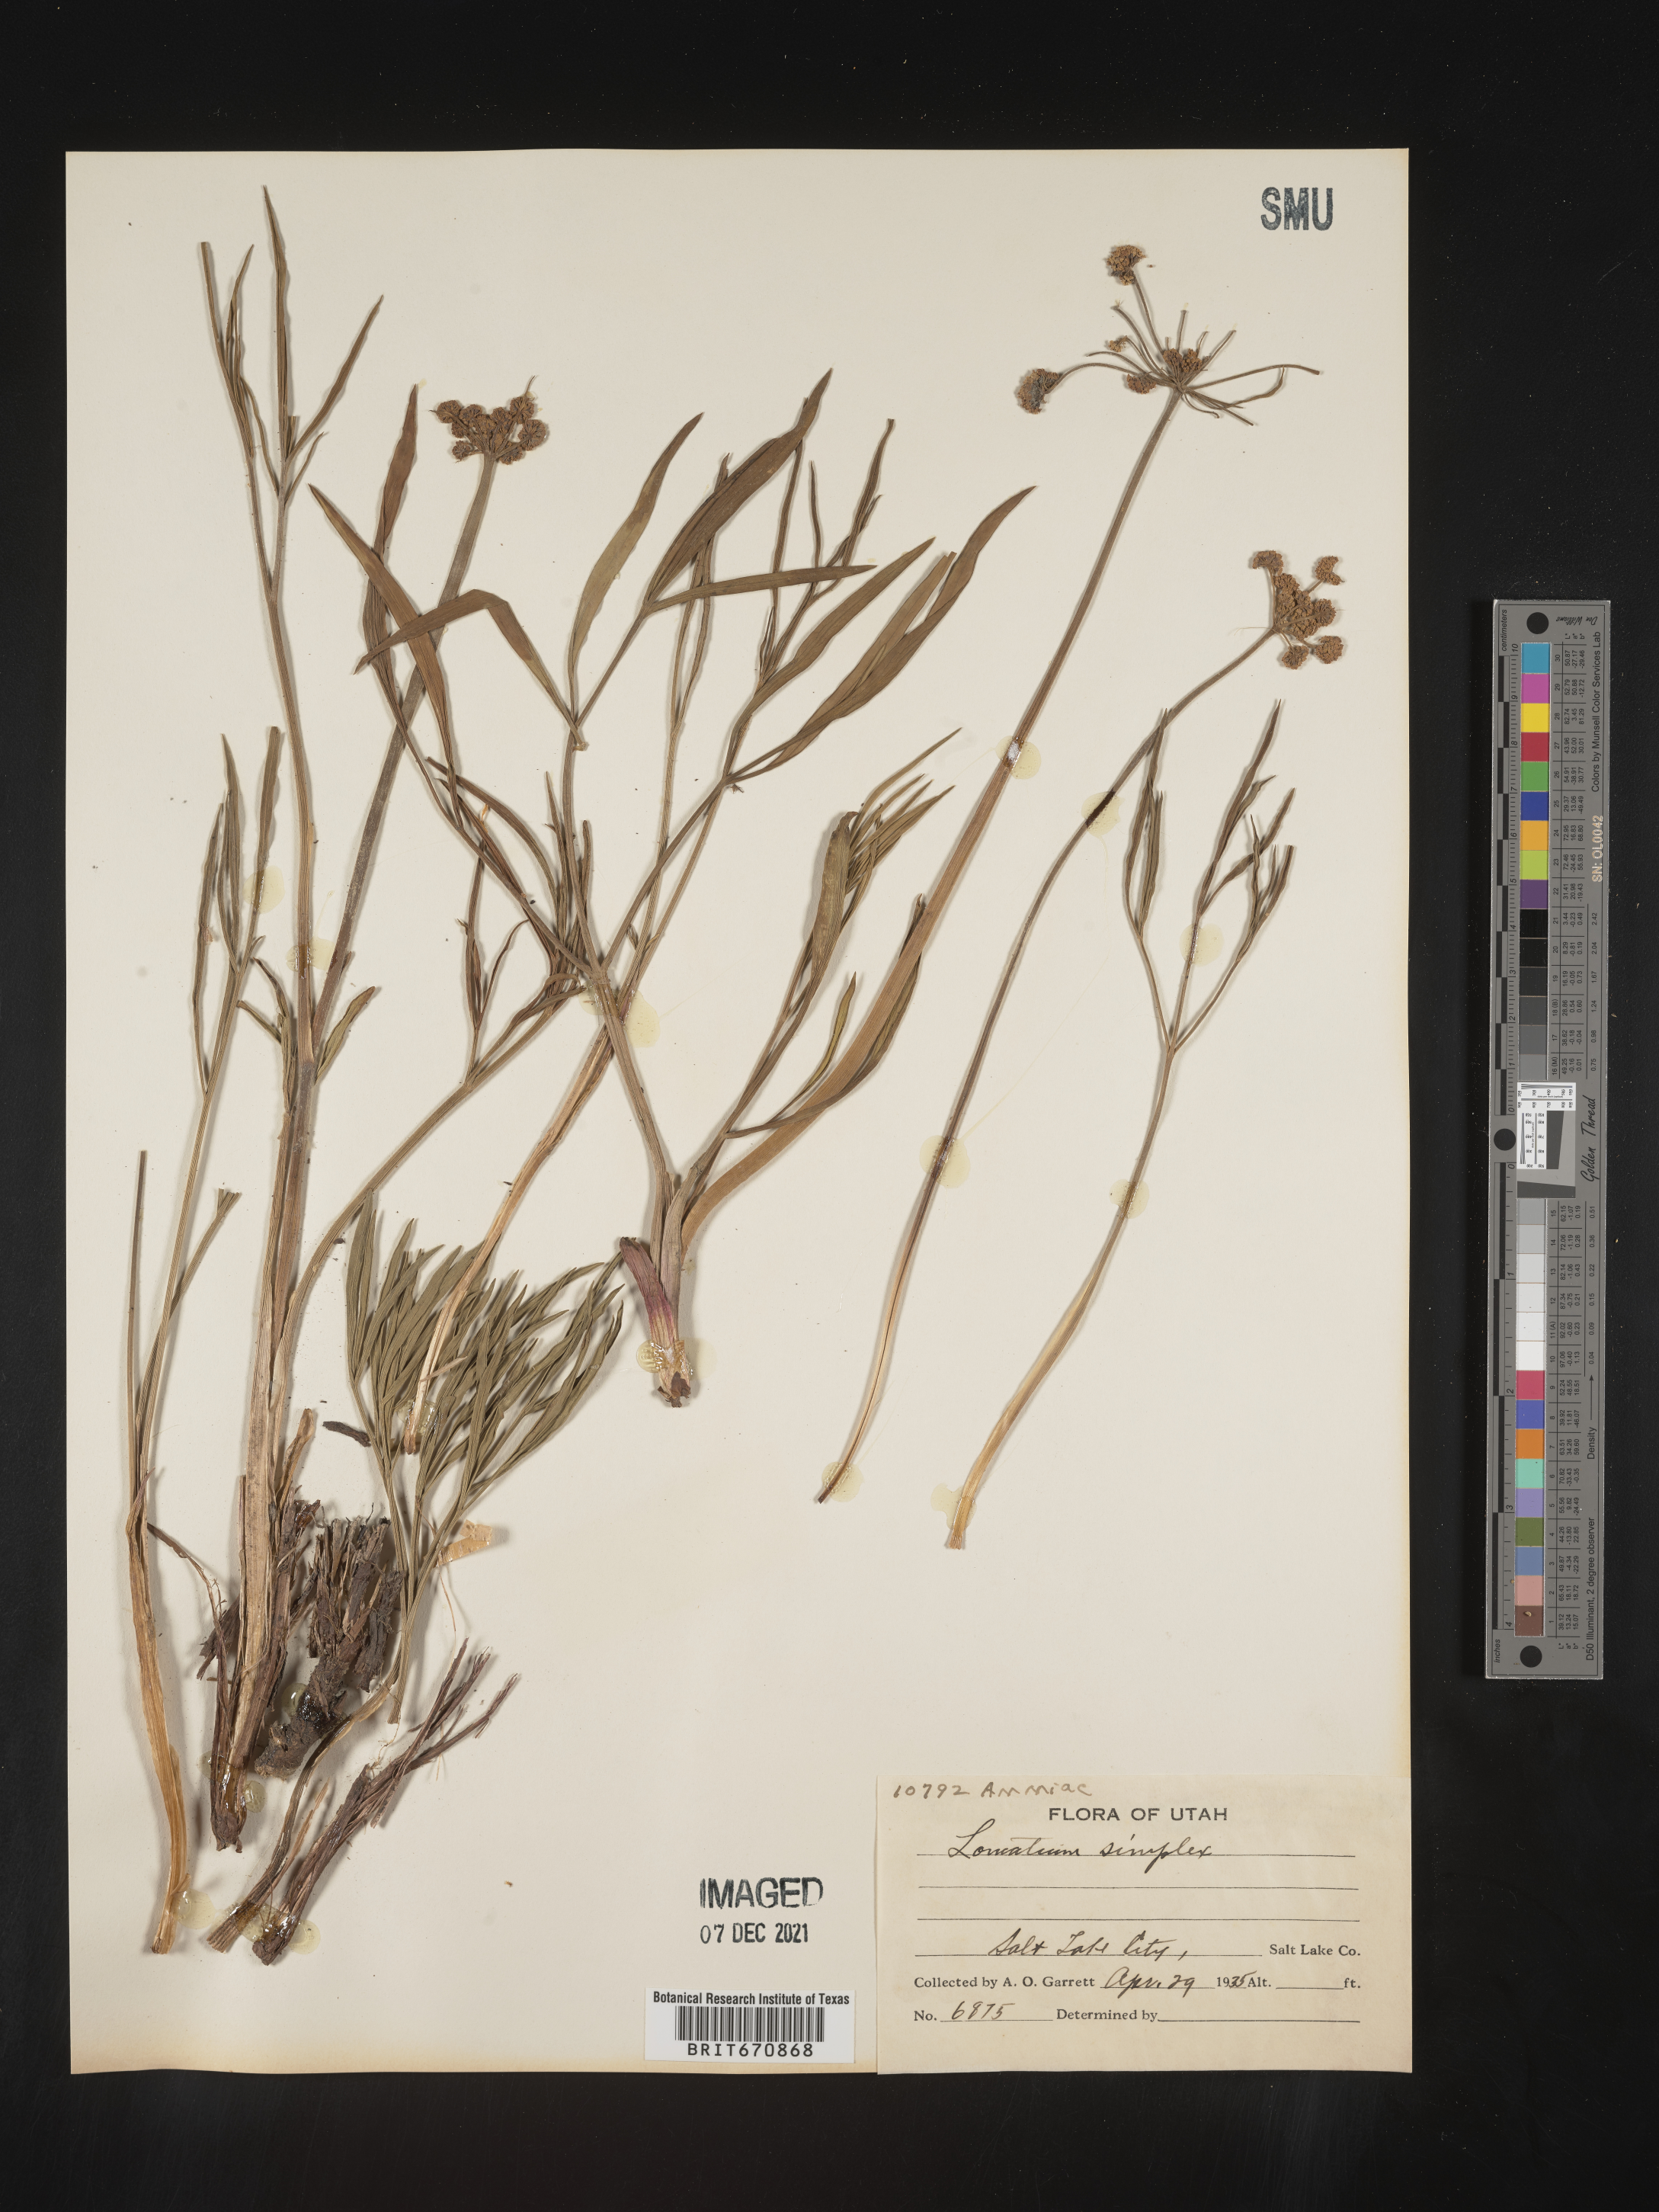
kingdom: Plantae
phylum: Tracheophyta
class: Magnoliopsida
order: Apiales
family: Apiaceae
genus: Lomatium
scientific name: Lomatium simplex
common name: Great basin biscuitroot
